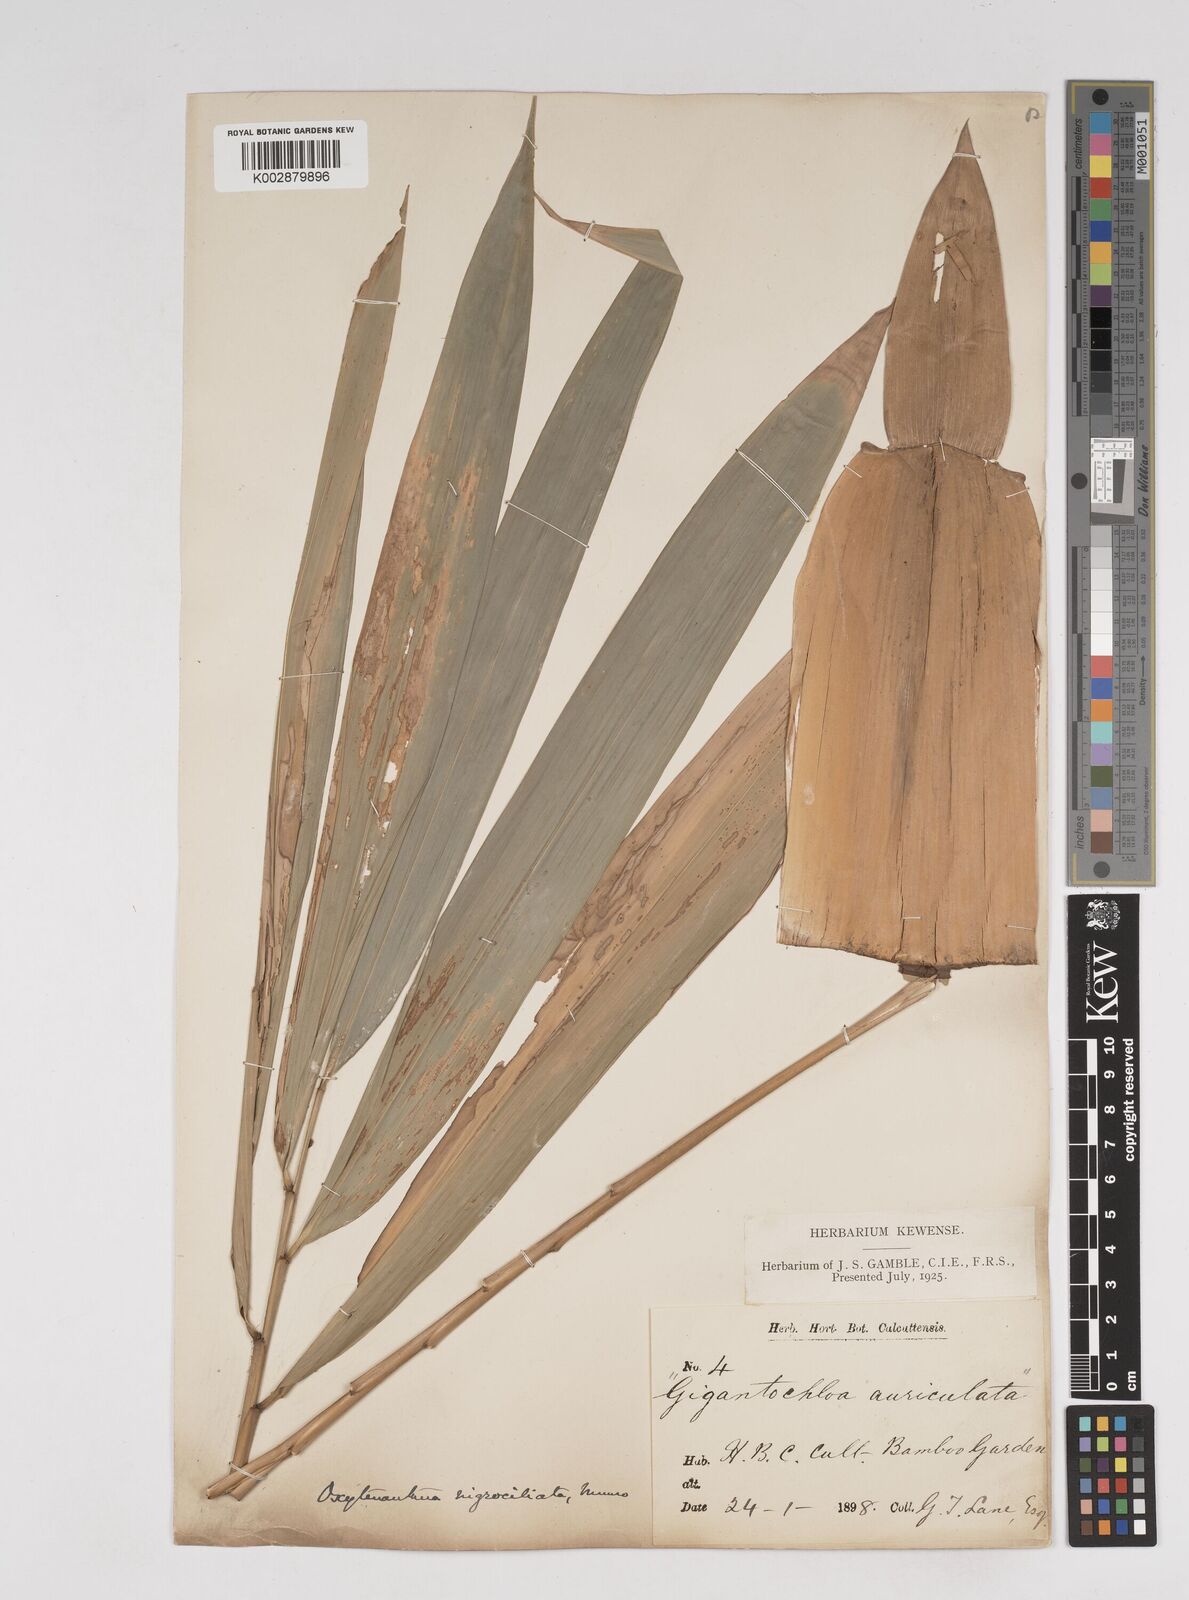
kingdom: Plantae
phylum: Tracheophyta
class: Liliopsida
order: Poales
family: Poaceae
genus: Gigantochloa
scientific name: Gigantochloa nigrociliata
